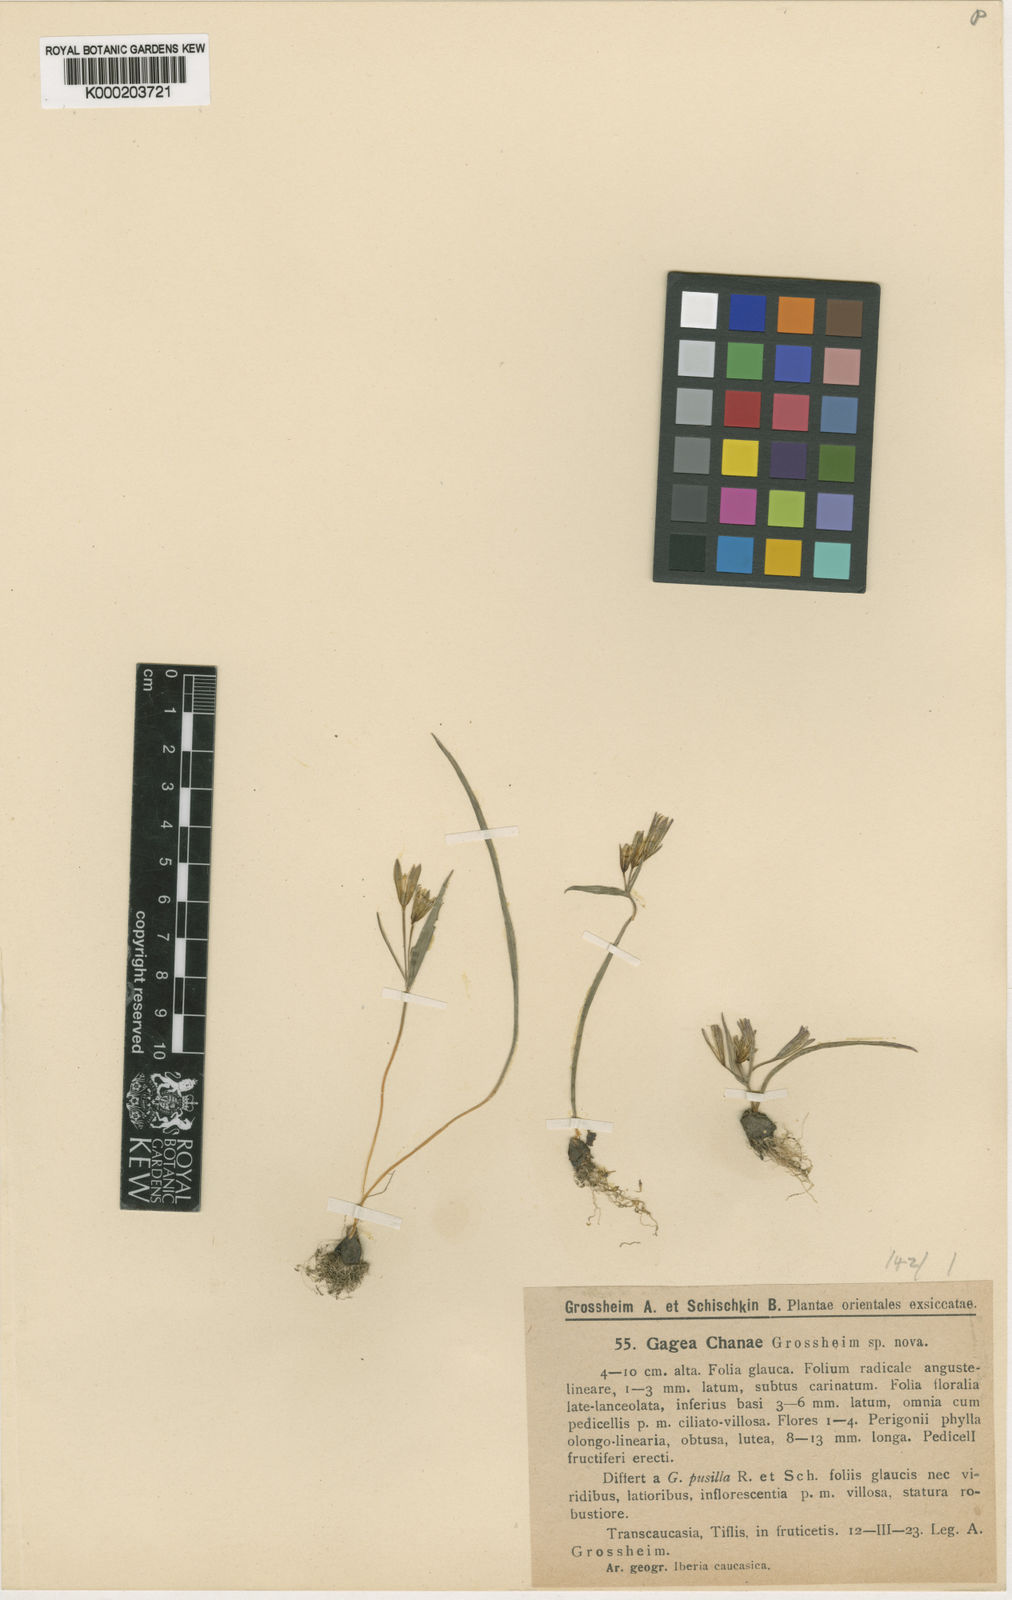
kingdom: Plantae
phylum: Tracheophyta
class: Liliopsida
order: Liliales
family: Liliaceae
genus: Gagea
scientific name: Gagea chanae
